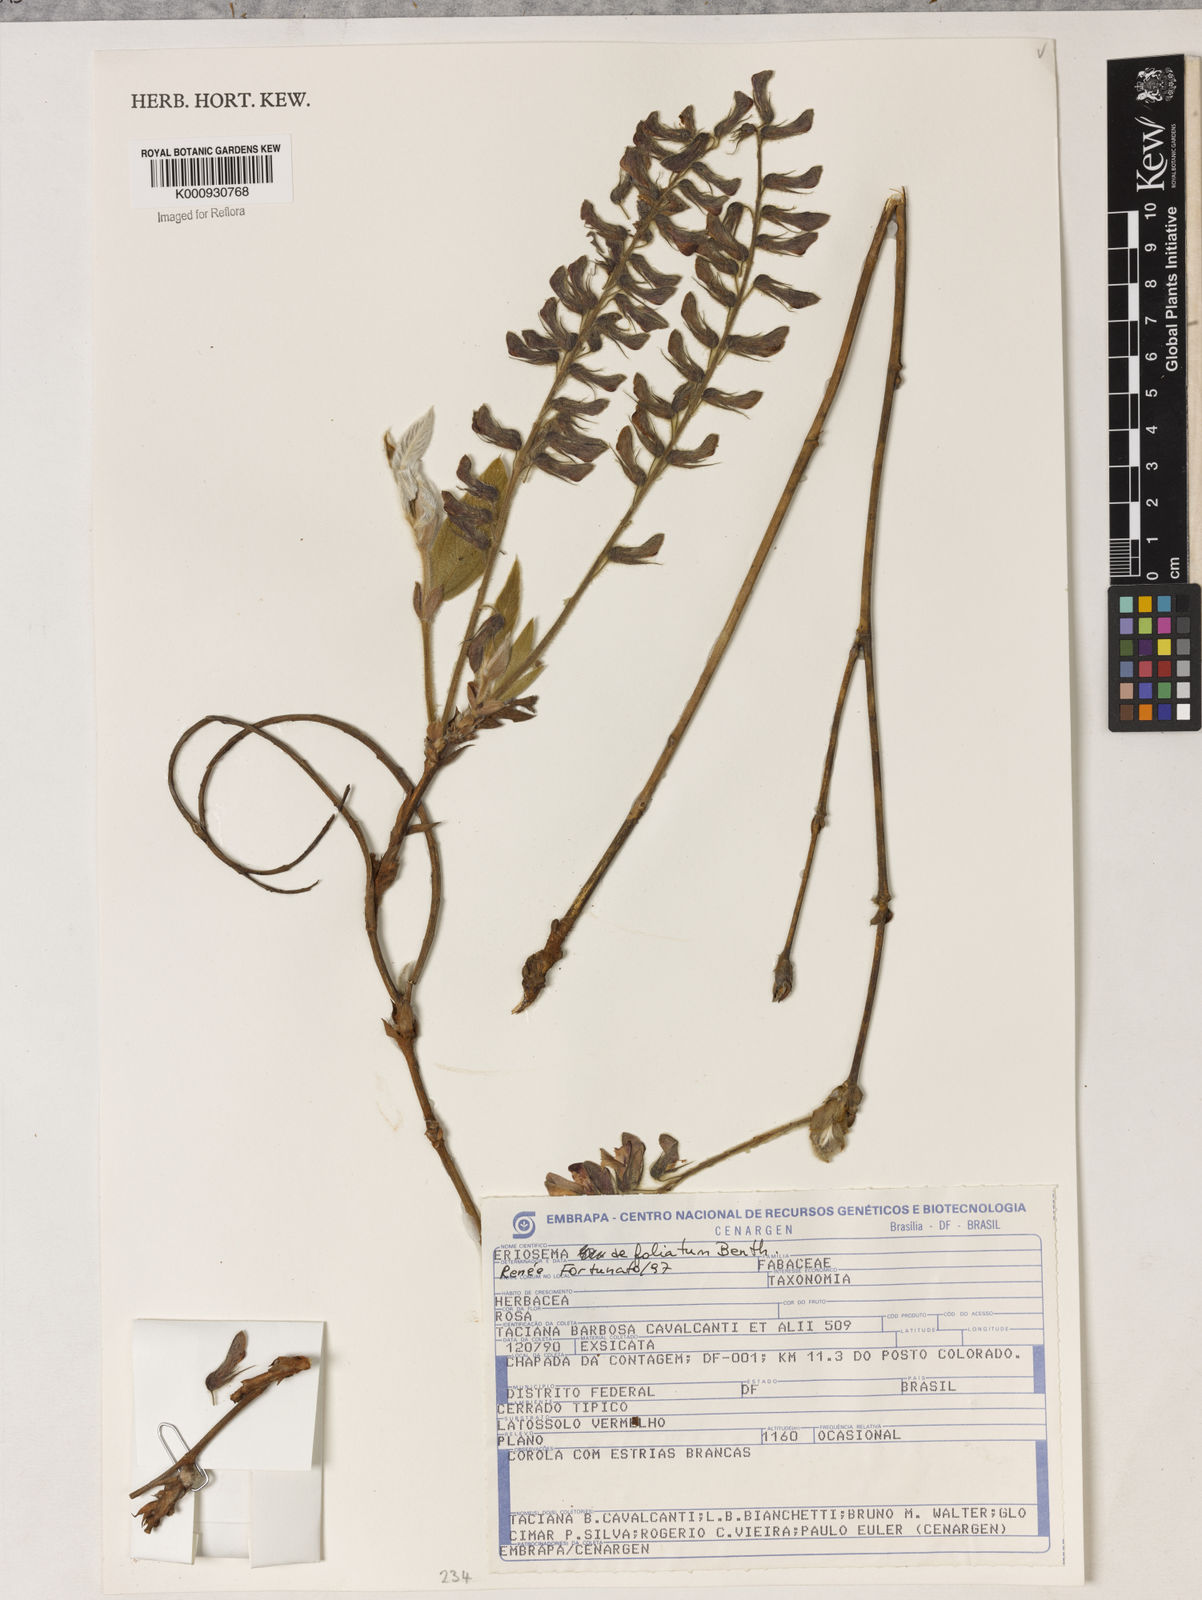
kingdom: Plantae
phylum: Tracheophyta
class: Magnoliopsida
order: Fabales
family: Fabaceae
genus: Eriosema
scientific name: Eriosema defoliatum
